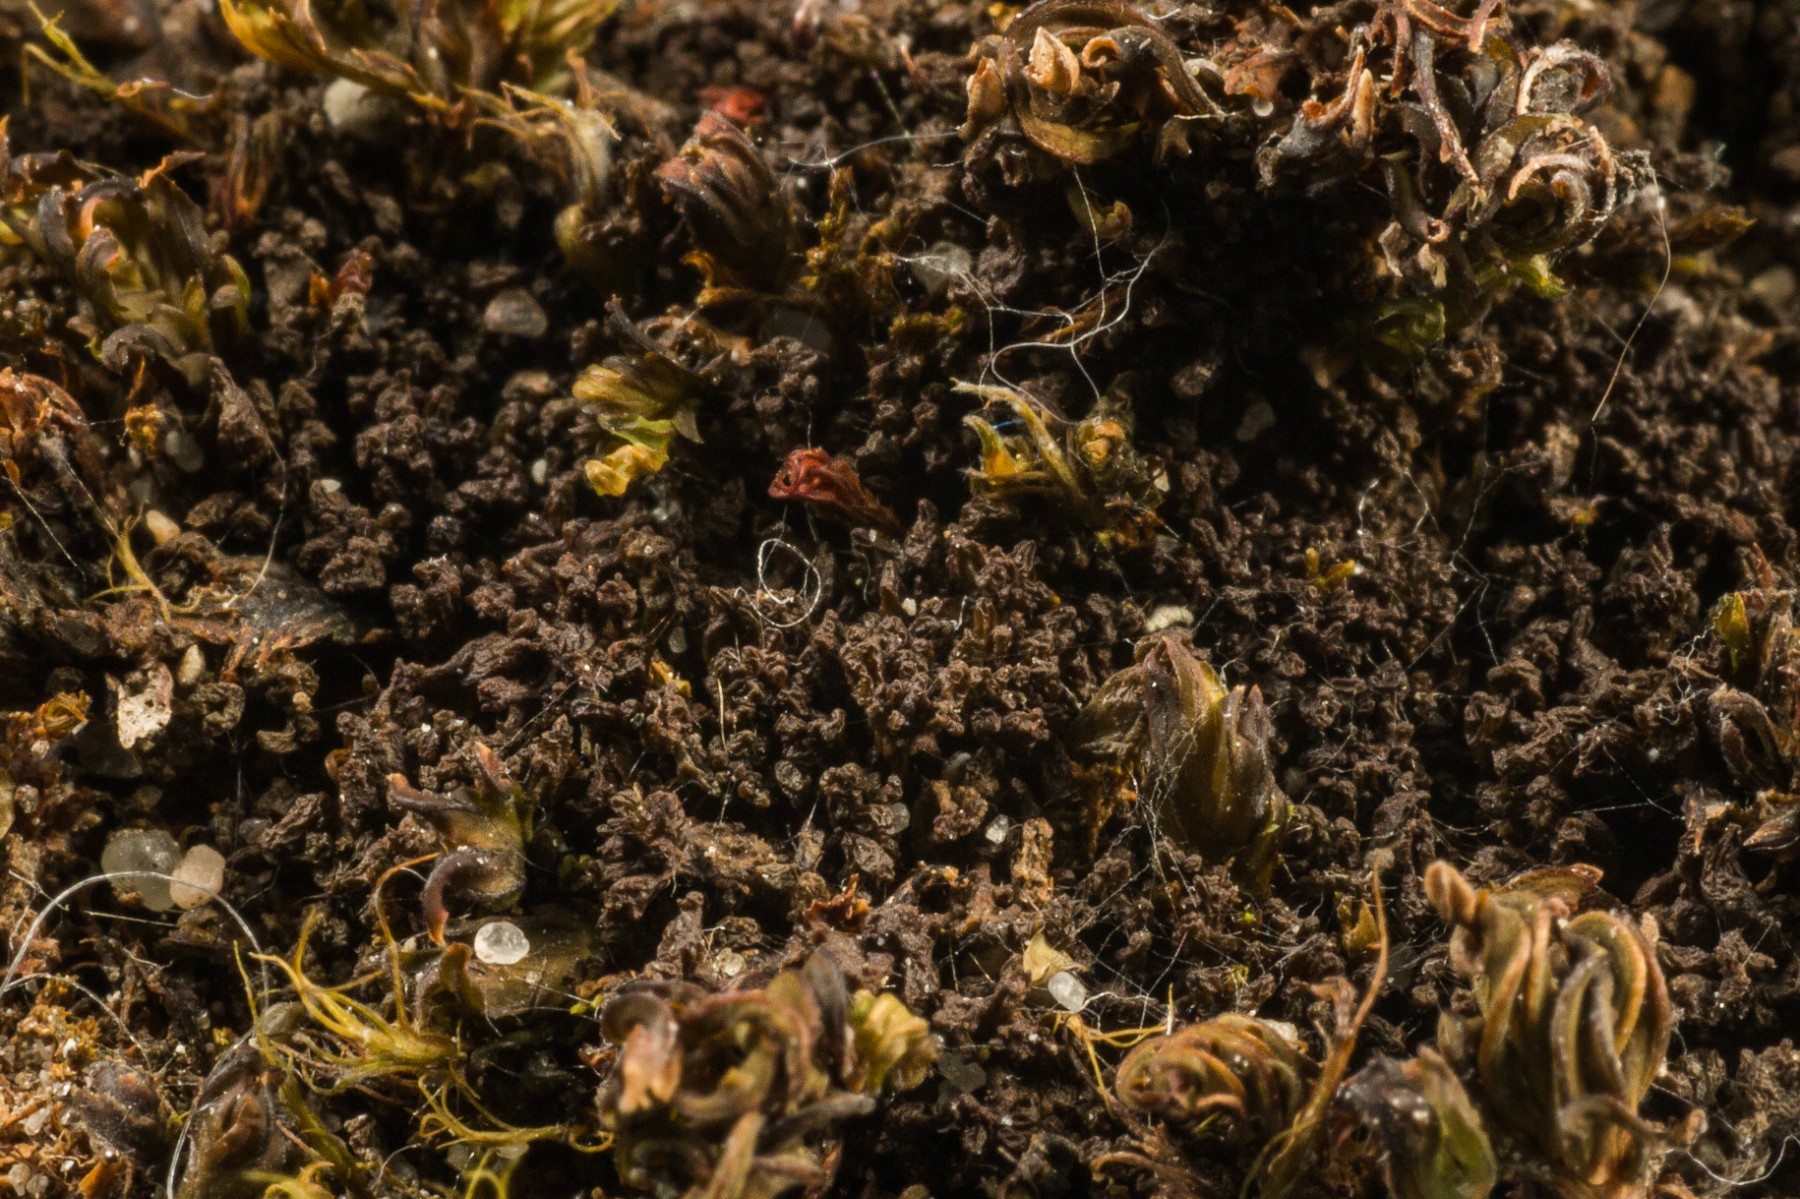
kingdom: Fungi
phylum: Ascomycota
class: Lecanoromycetes
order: Peltigerales
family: Collemataceae
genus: Scytinium
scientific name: Scytinium schraderi
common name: grubet hindelav
